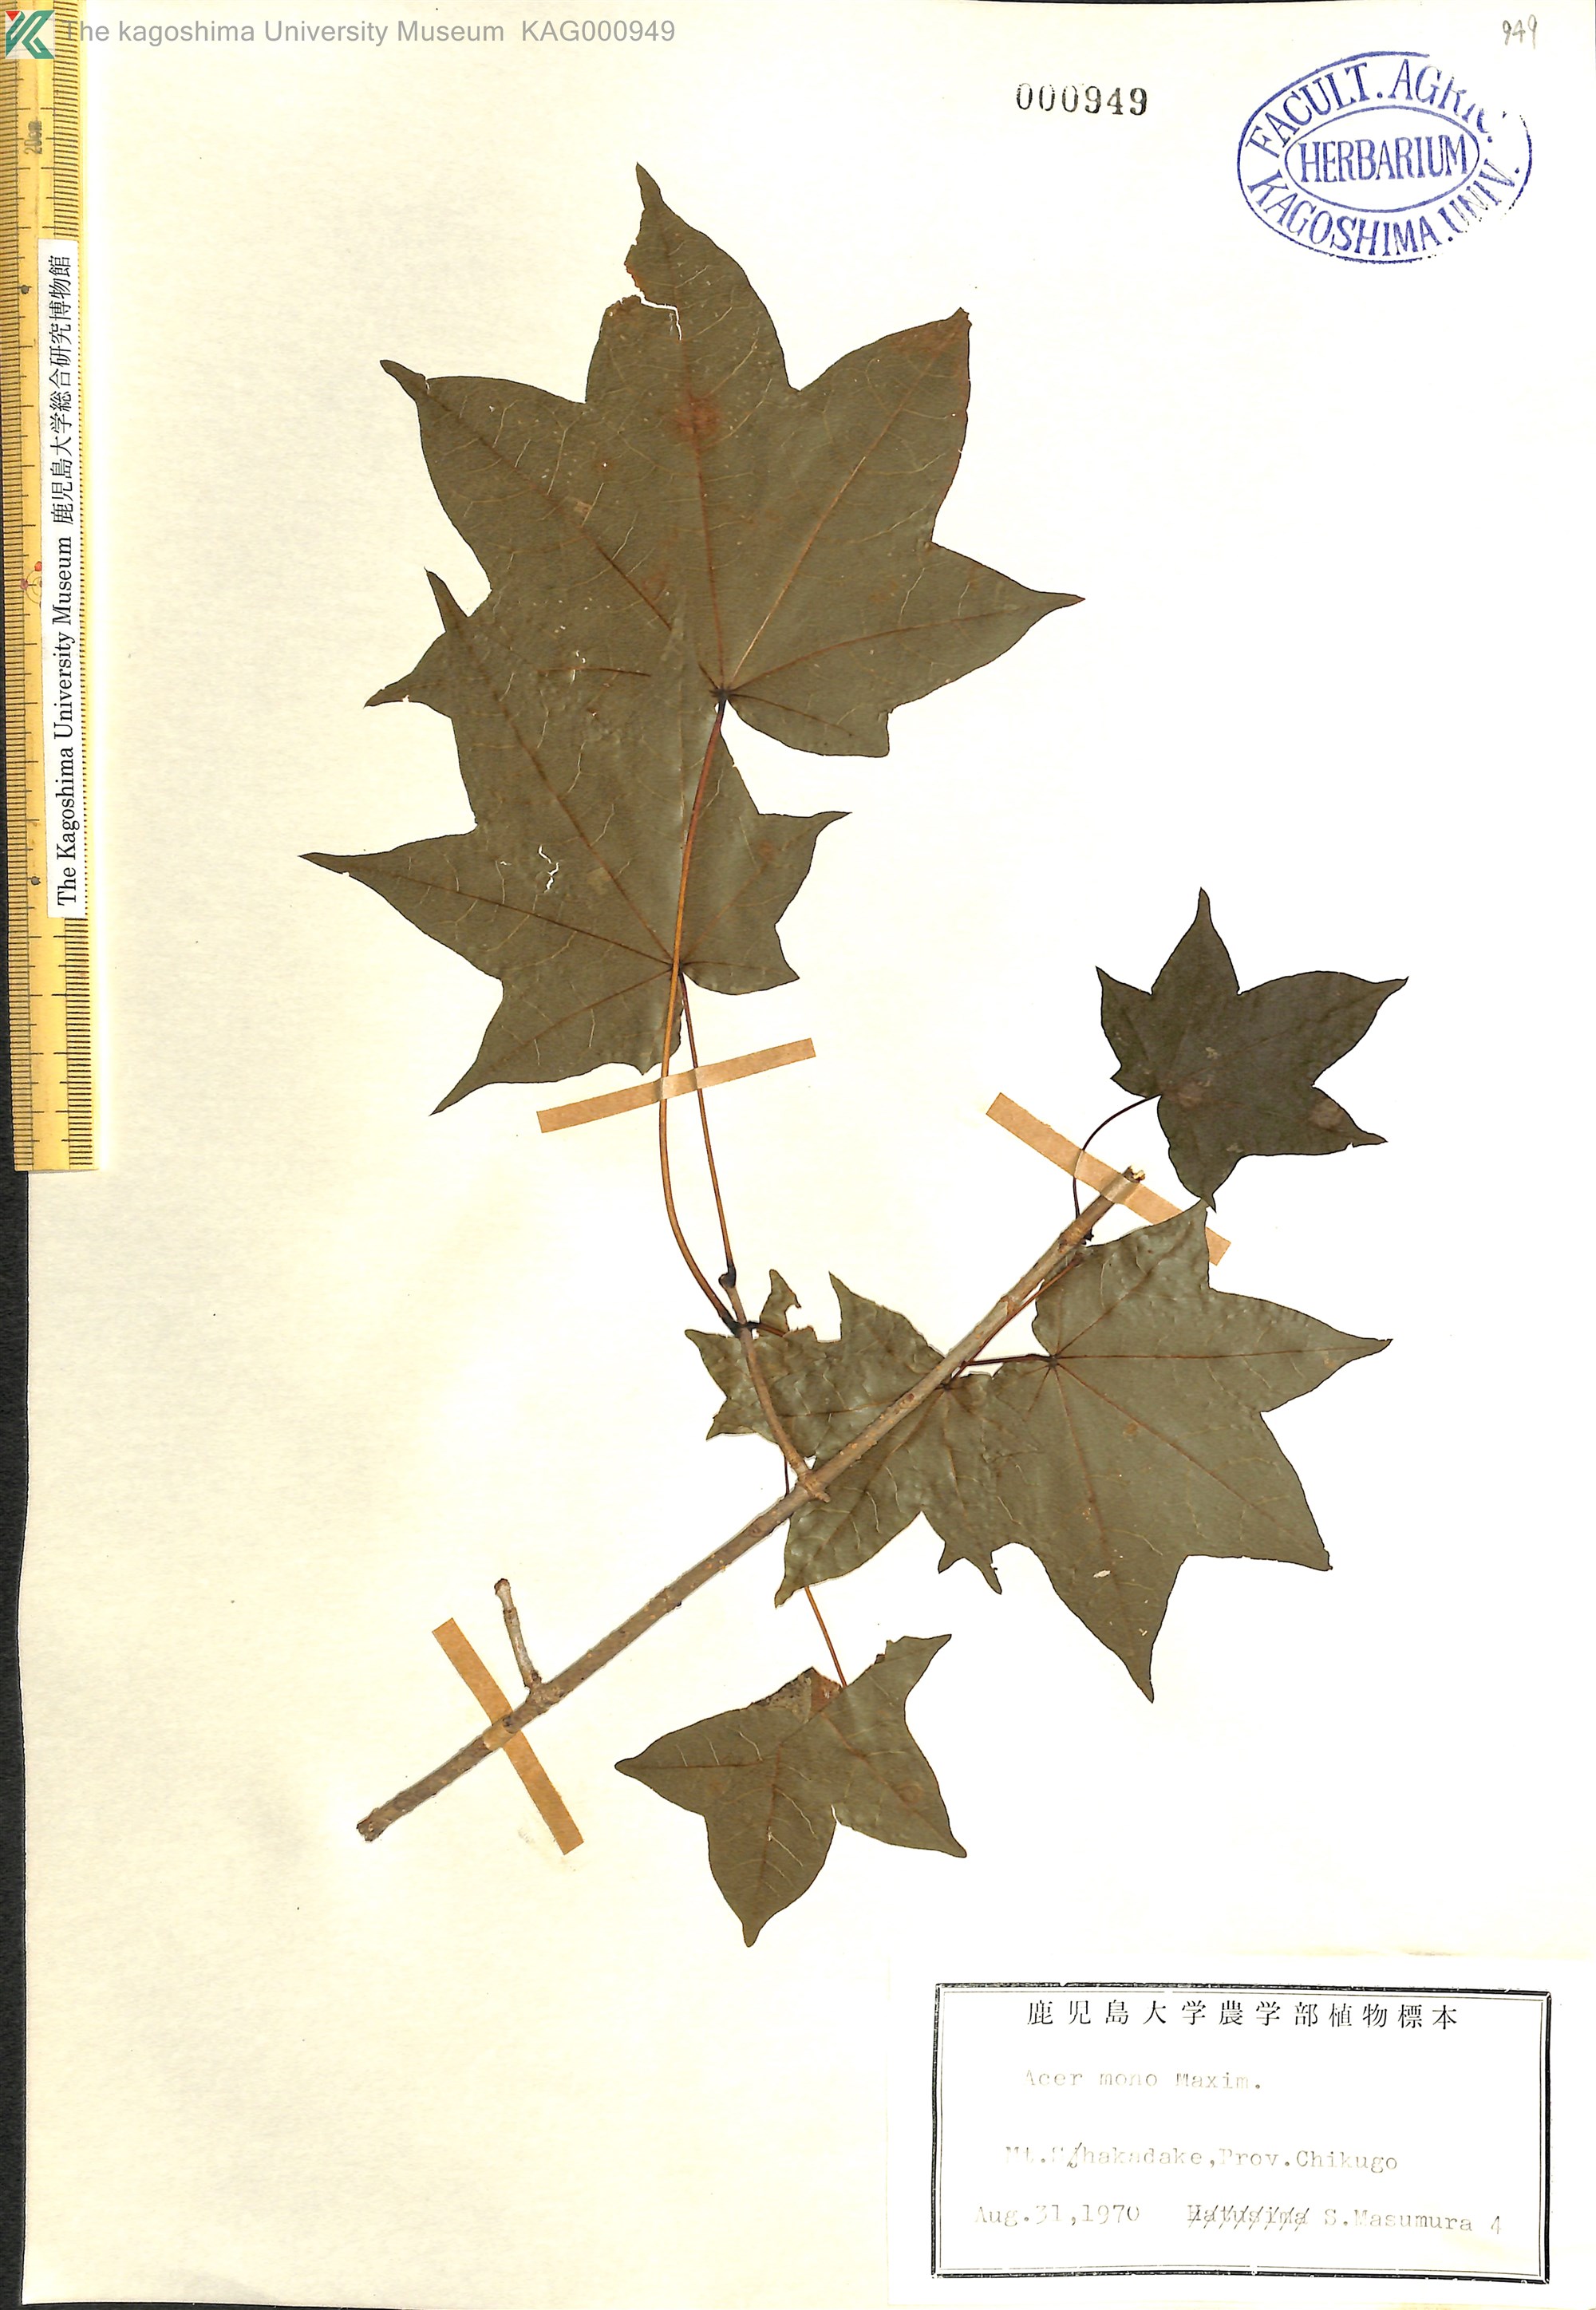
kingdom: Plantae
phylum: Tracheophyta
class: Magnoliopsida
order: Sapindales
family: Sapindaceae
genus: Acer
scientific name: Acer pictum
